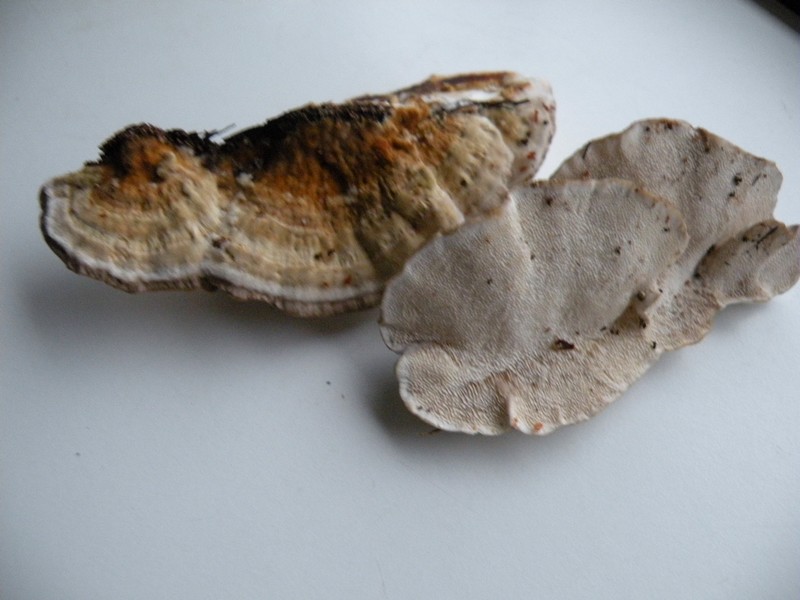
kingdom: Fungi
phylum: Basidiomycota
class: Agaricomycetes
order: Polyporales
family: Polyporaceae
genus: Trametes
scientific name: Trametes ochracea
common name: bæltet læderporesvamp
